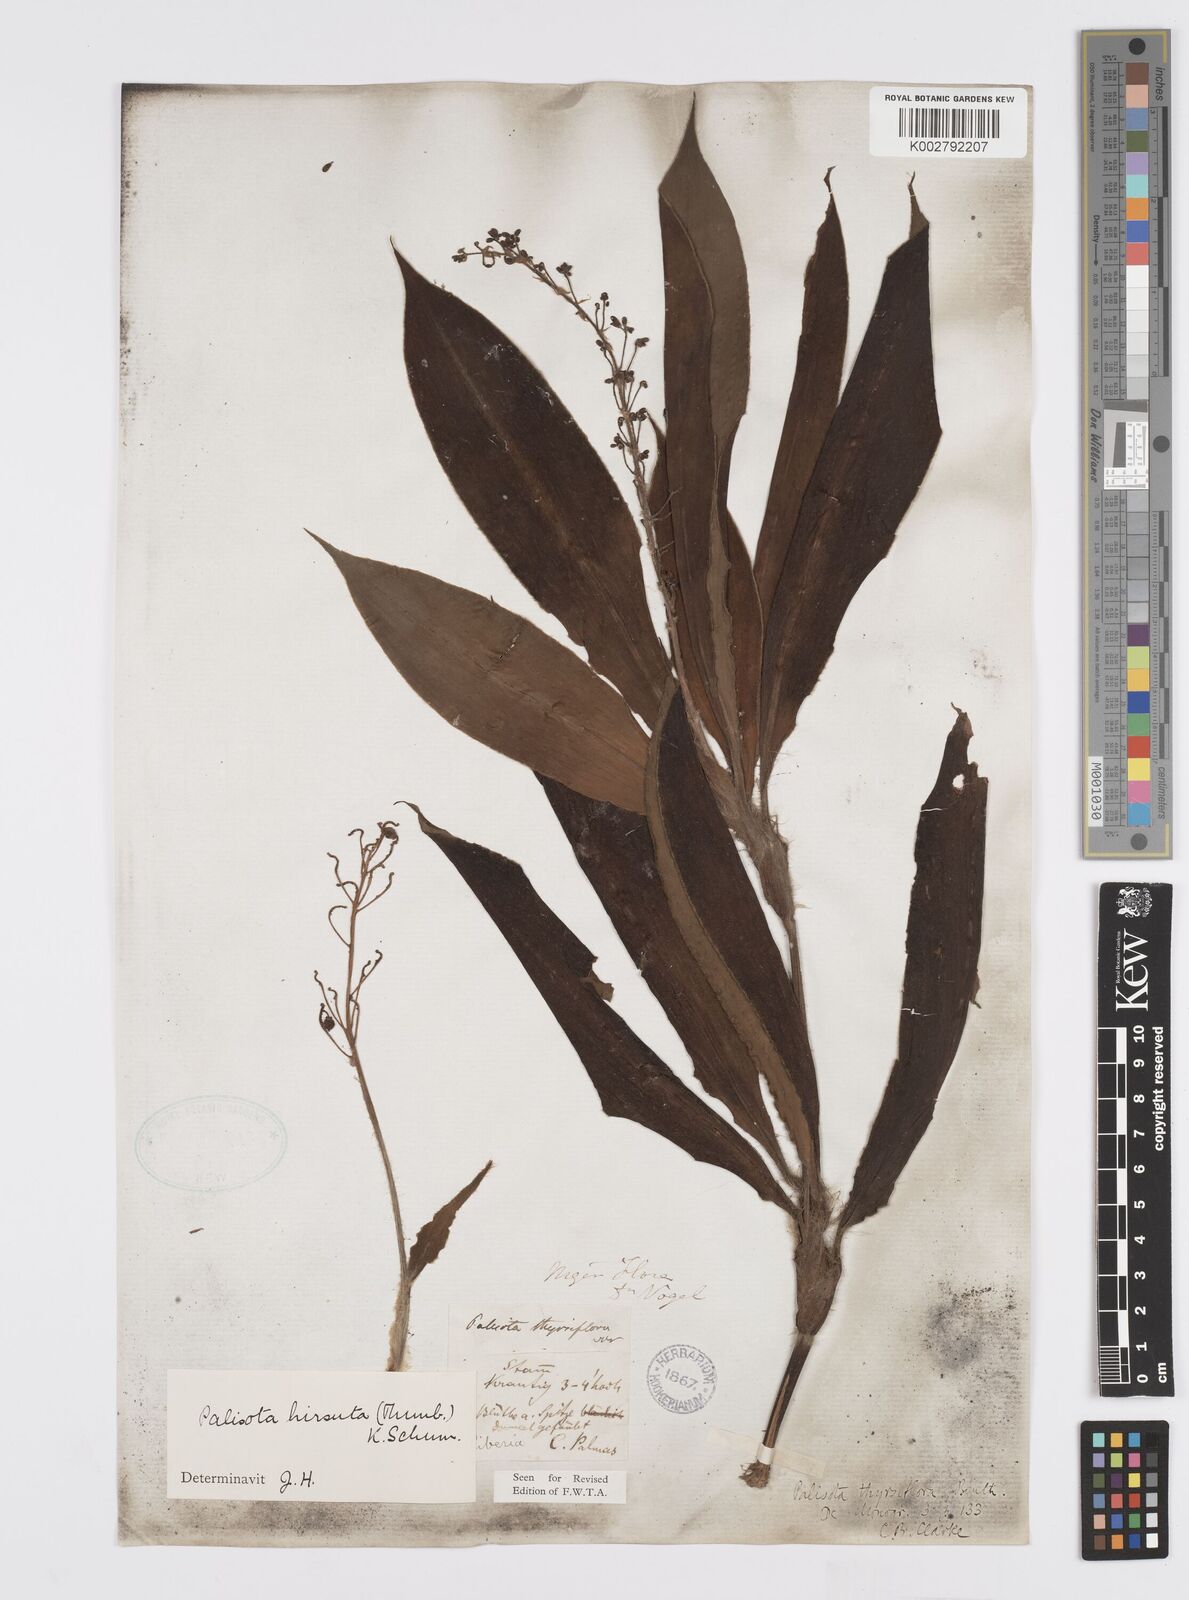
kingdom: Plantae
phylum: Tracheophyta
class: Liliopsida
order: Commelinales
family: Commelinaceae
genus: Palisota
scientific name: Palisota hirsuta
